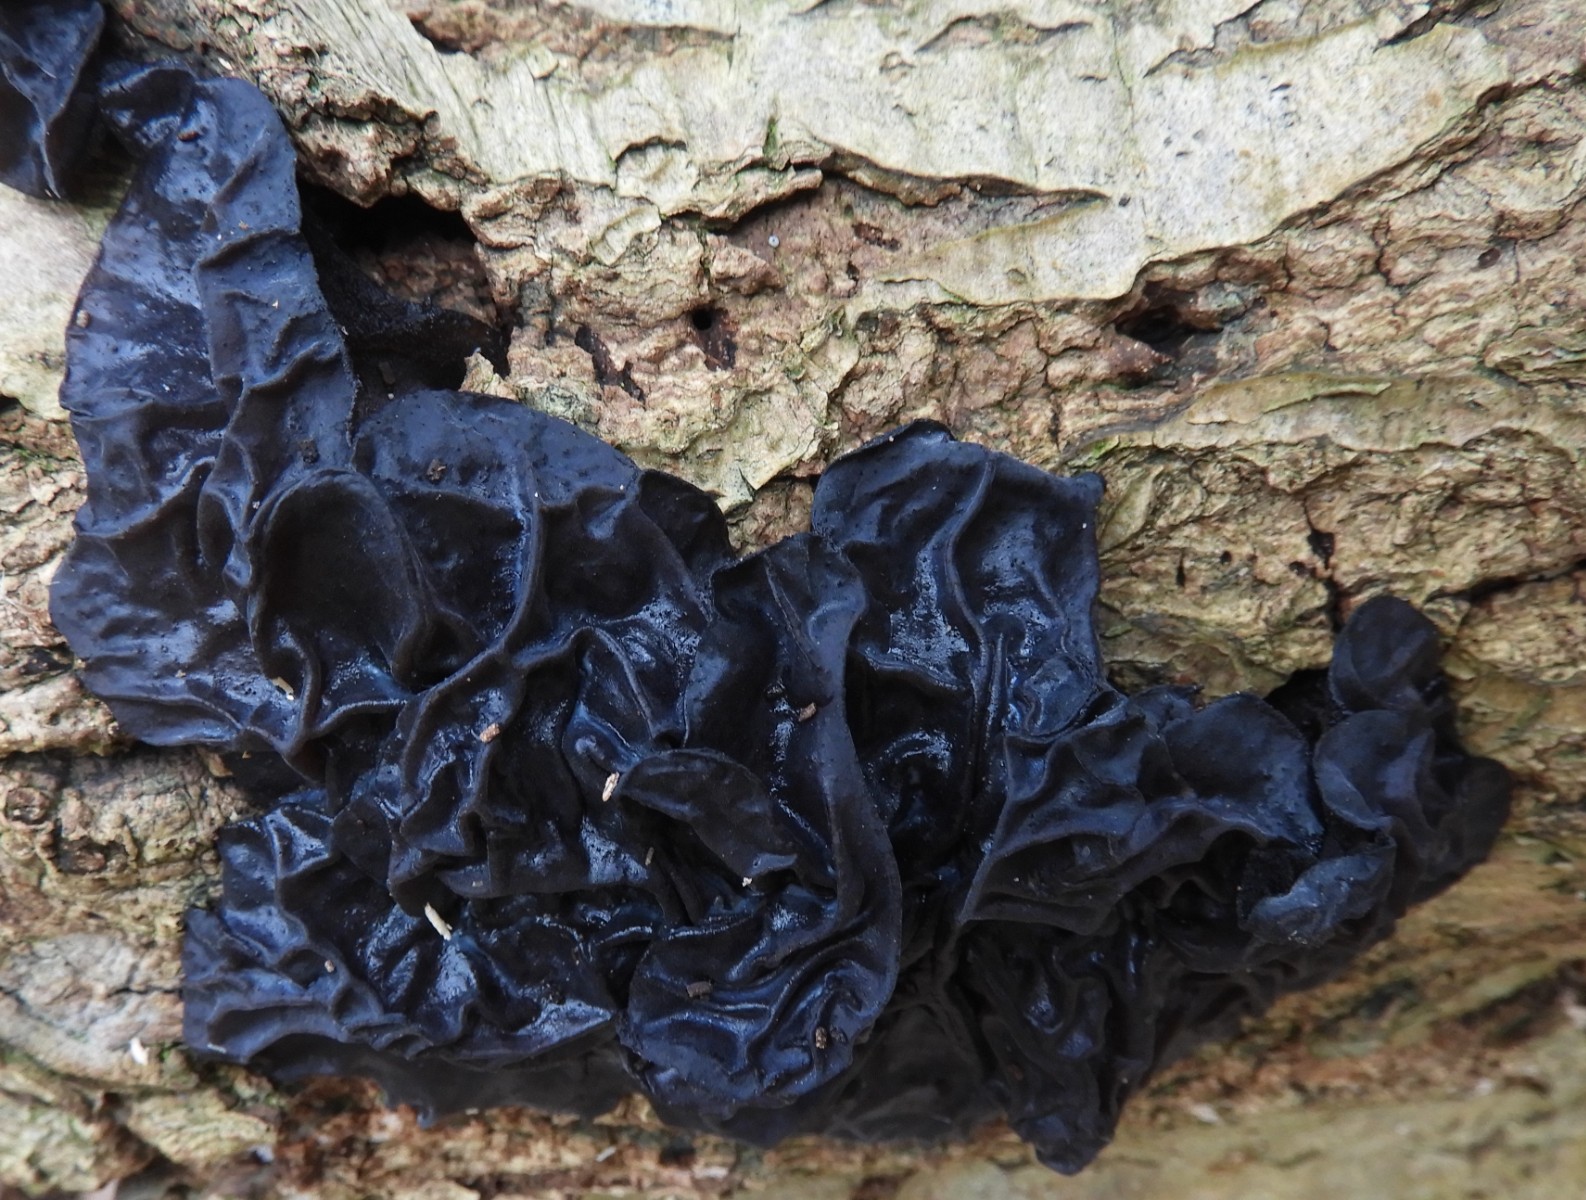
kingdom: Fungi
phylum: Basidiomycota
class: Agaricomycetes
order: Auriculariales
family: Auriculariaceae
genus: Exidia
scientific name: Exidia glandulosa
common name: ege-bævretop
